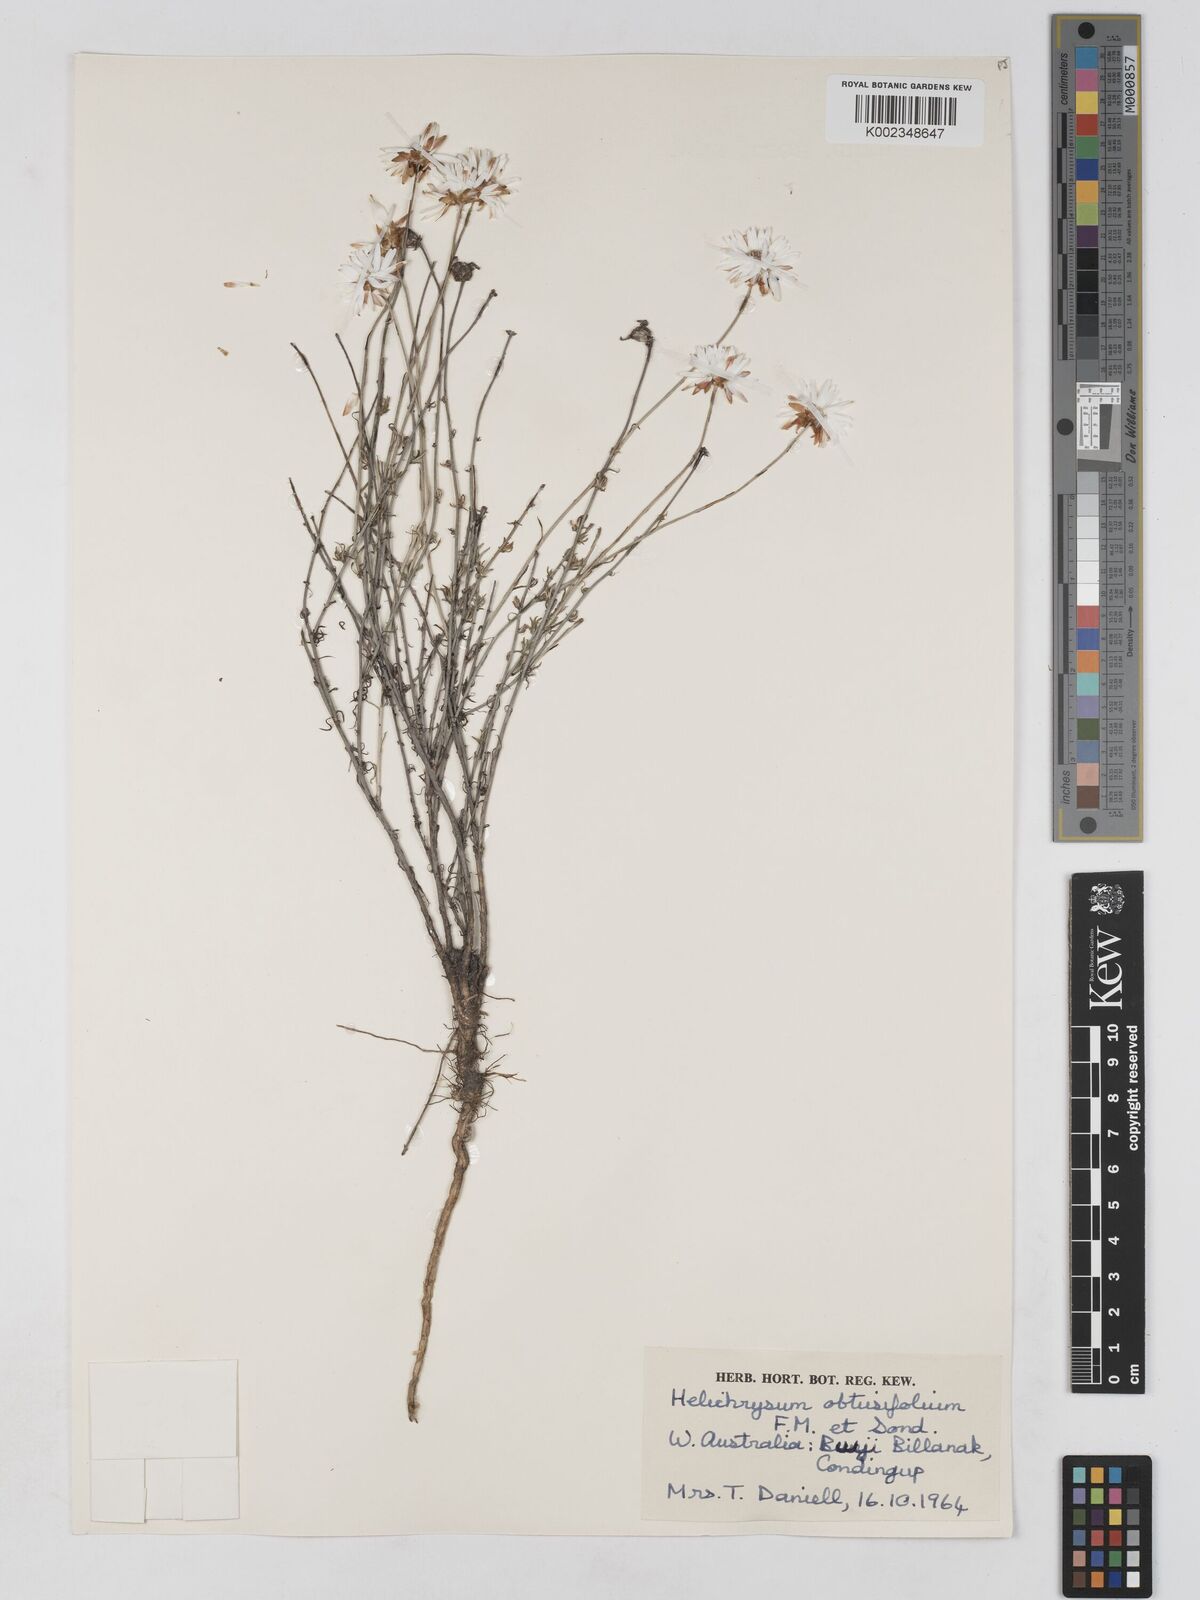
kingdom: Plantae
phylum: Tracheophyta
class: Magnoliopsida
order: Asterales
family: Asteraceae
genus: Argentipallium
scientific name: Argentipallium obtusifolium
